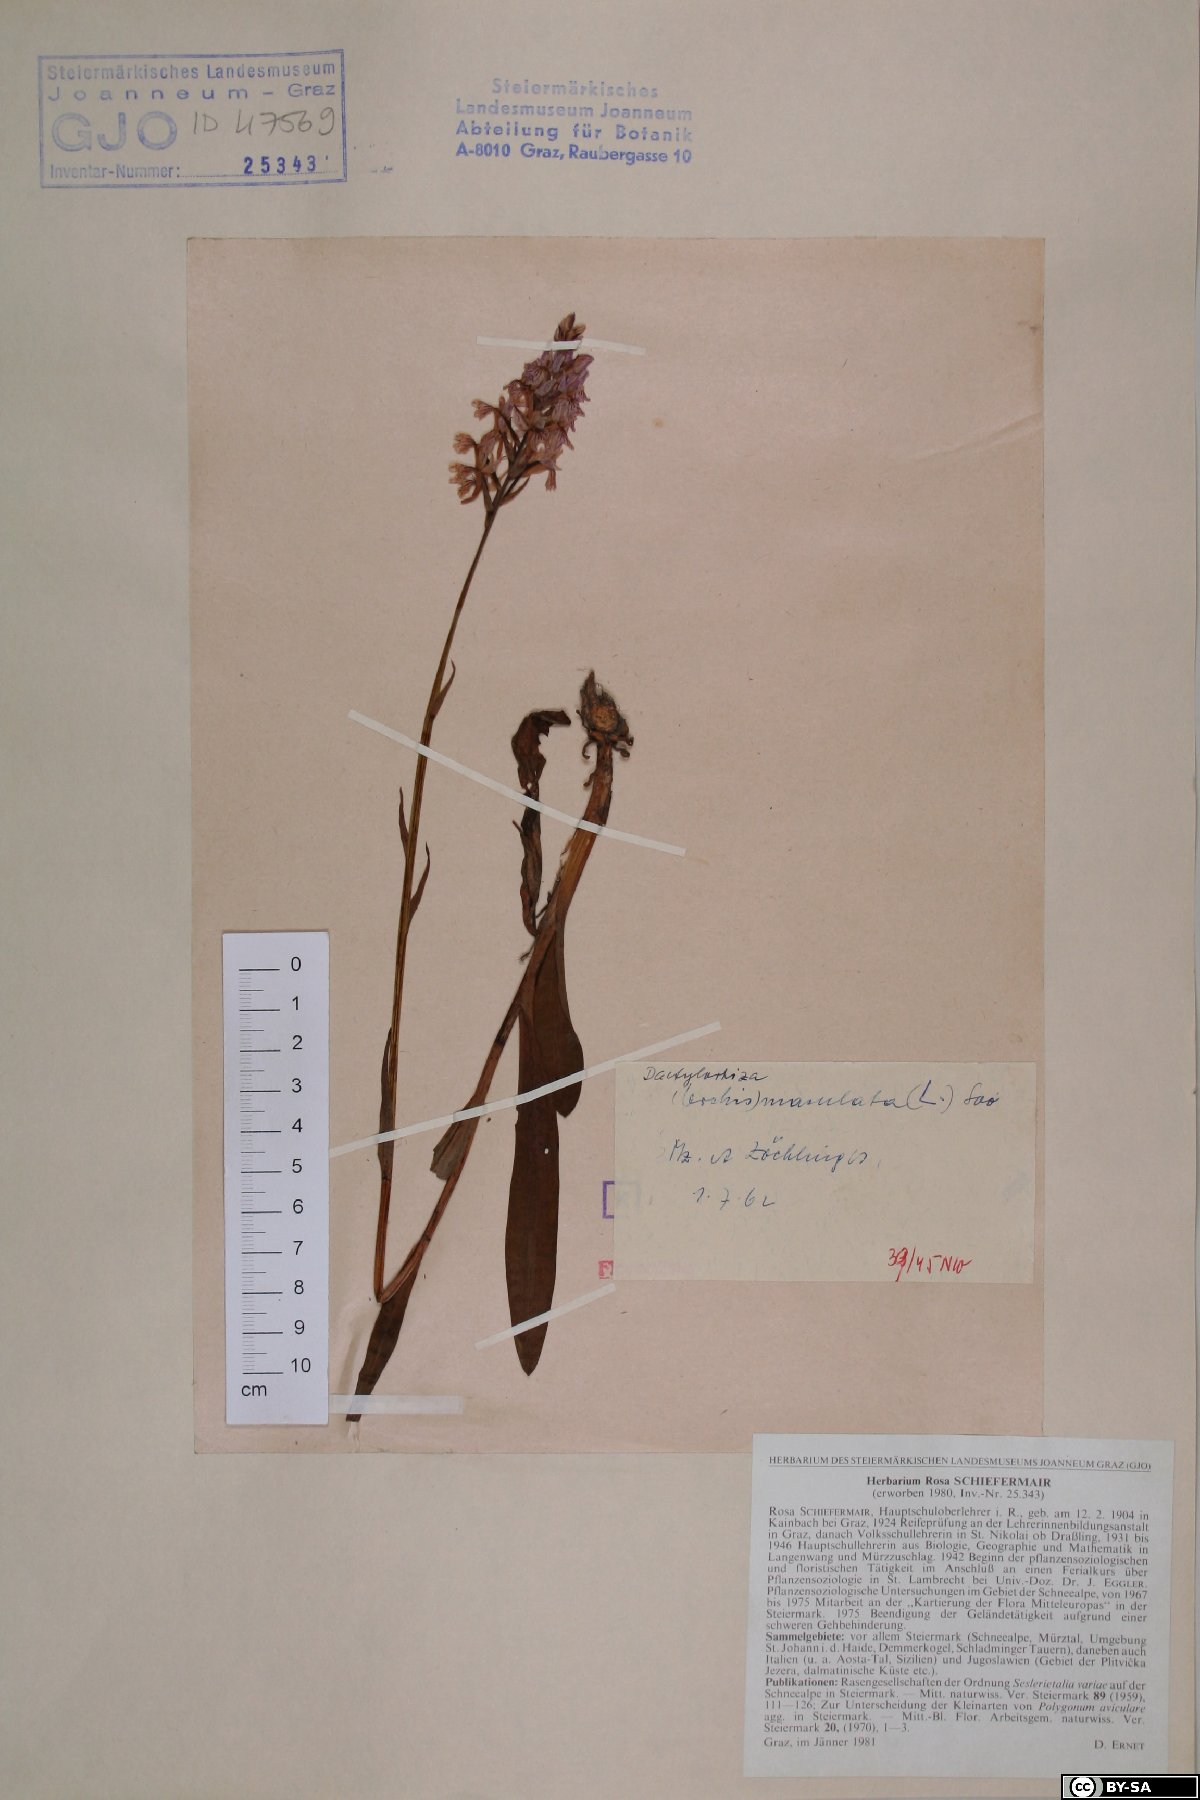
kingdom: Plantae
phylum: Tracheophyta
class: Liliopsida
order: Asparagales
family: Orchidaceae
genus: Dactylorhiza
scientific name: Dactylorhiza maculata
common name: Heath spotted-orchid
